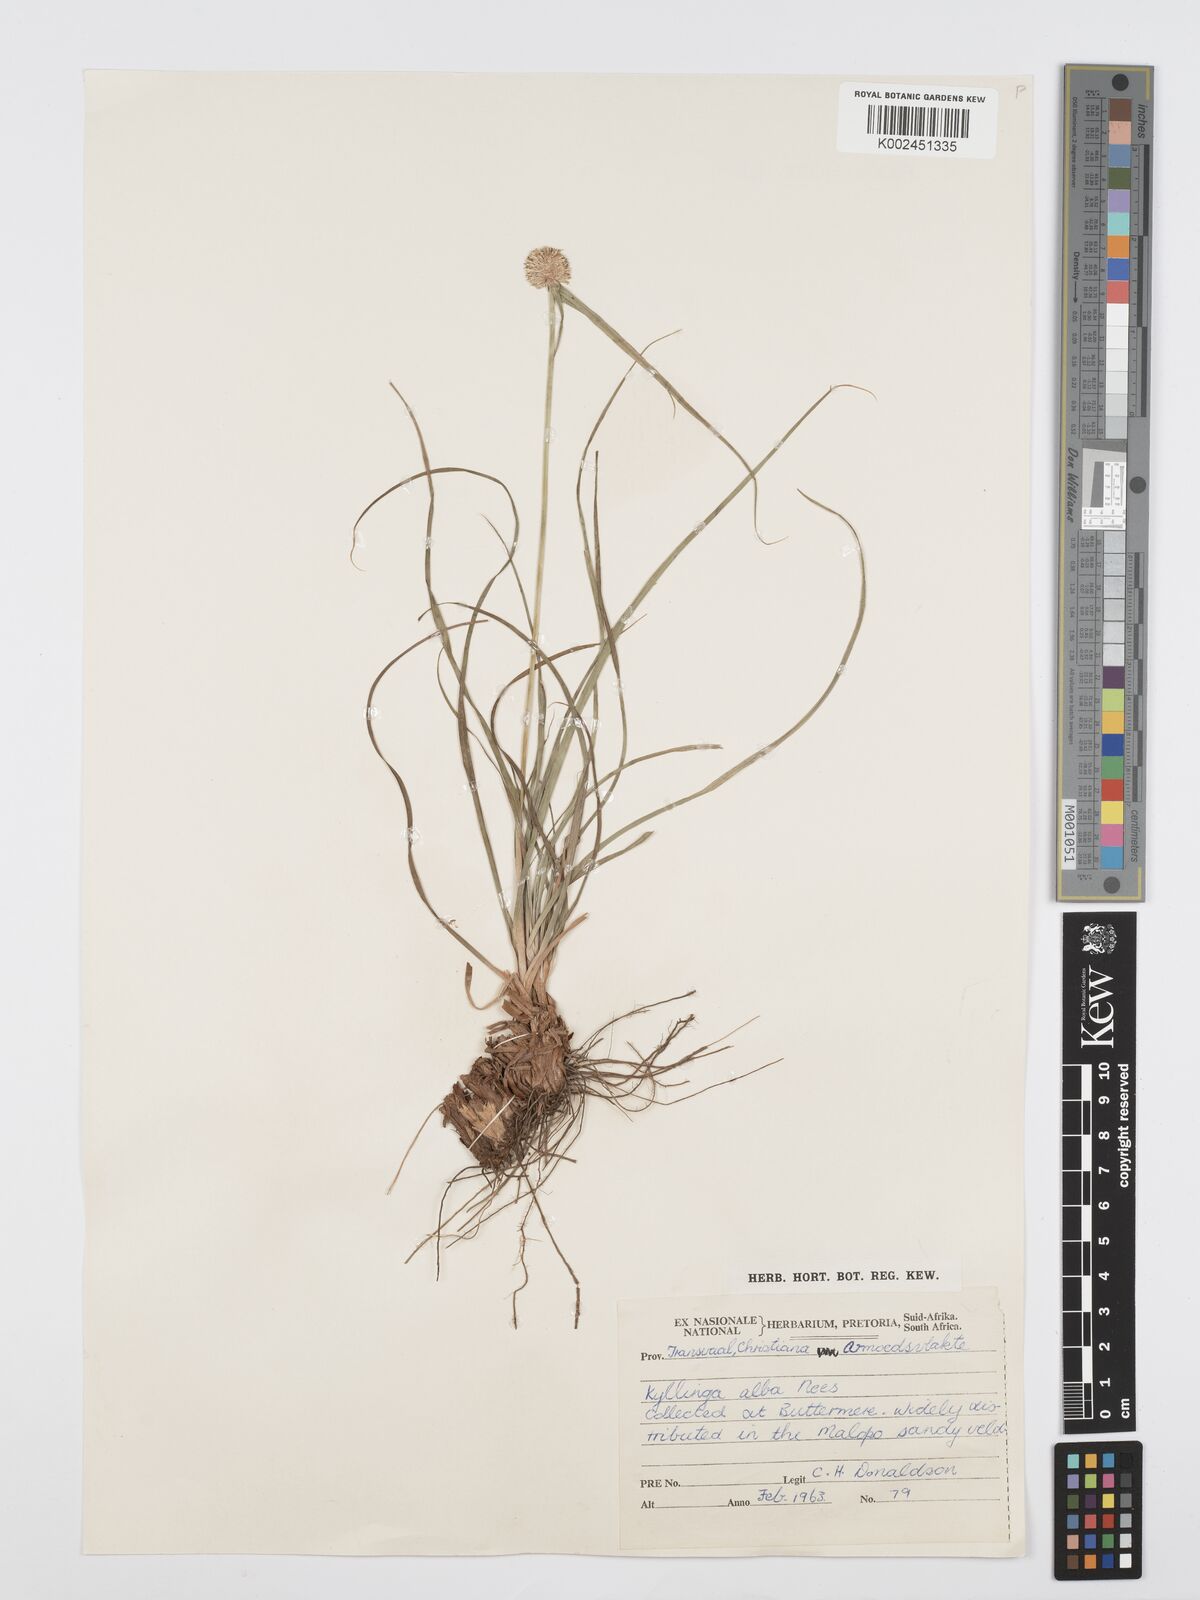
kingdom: Plantae
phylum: Tracheophyta
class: Liliopsida
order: Poales
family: Cyperaceae
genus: Cyperus
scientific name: Cyperus
